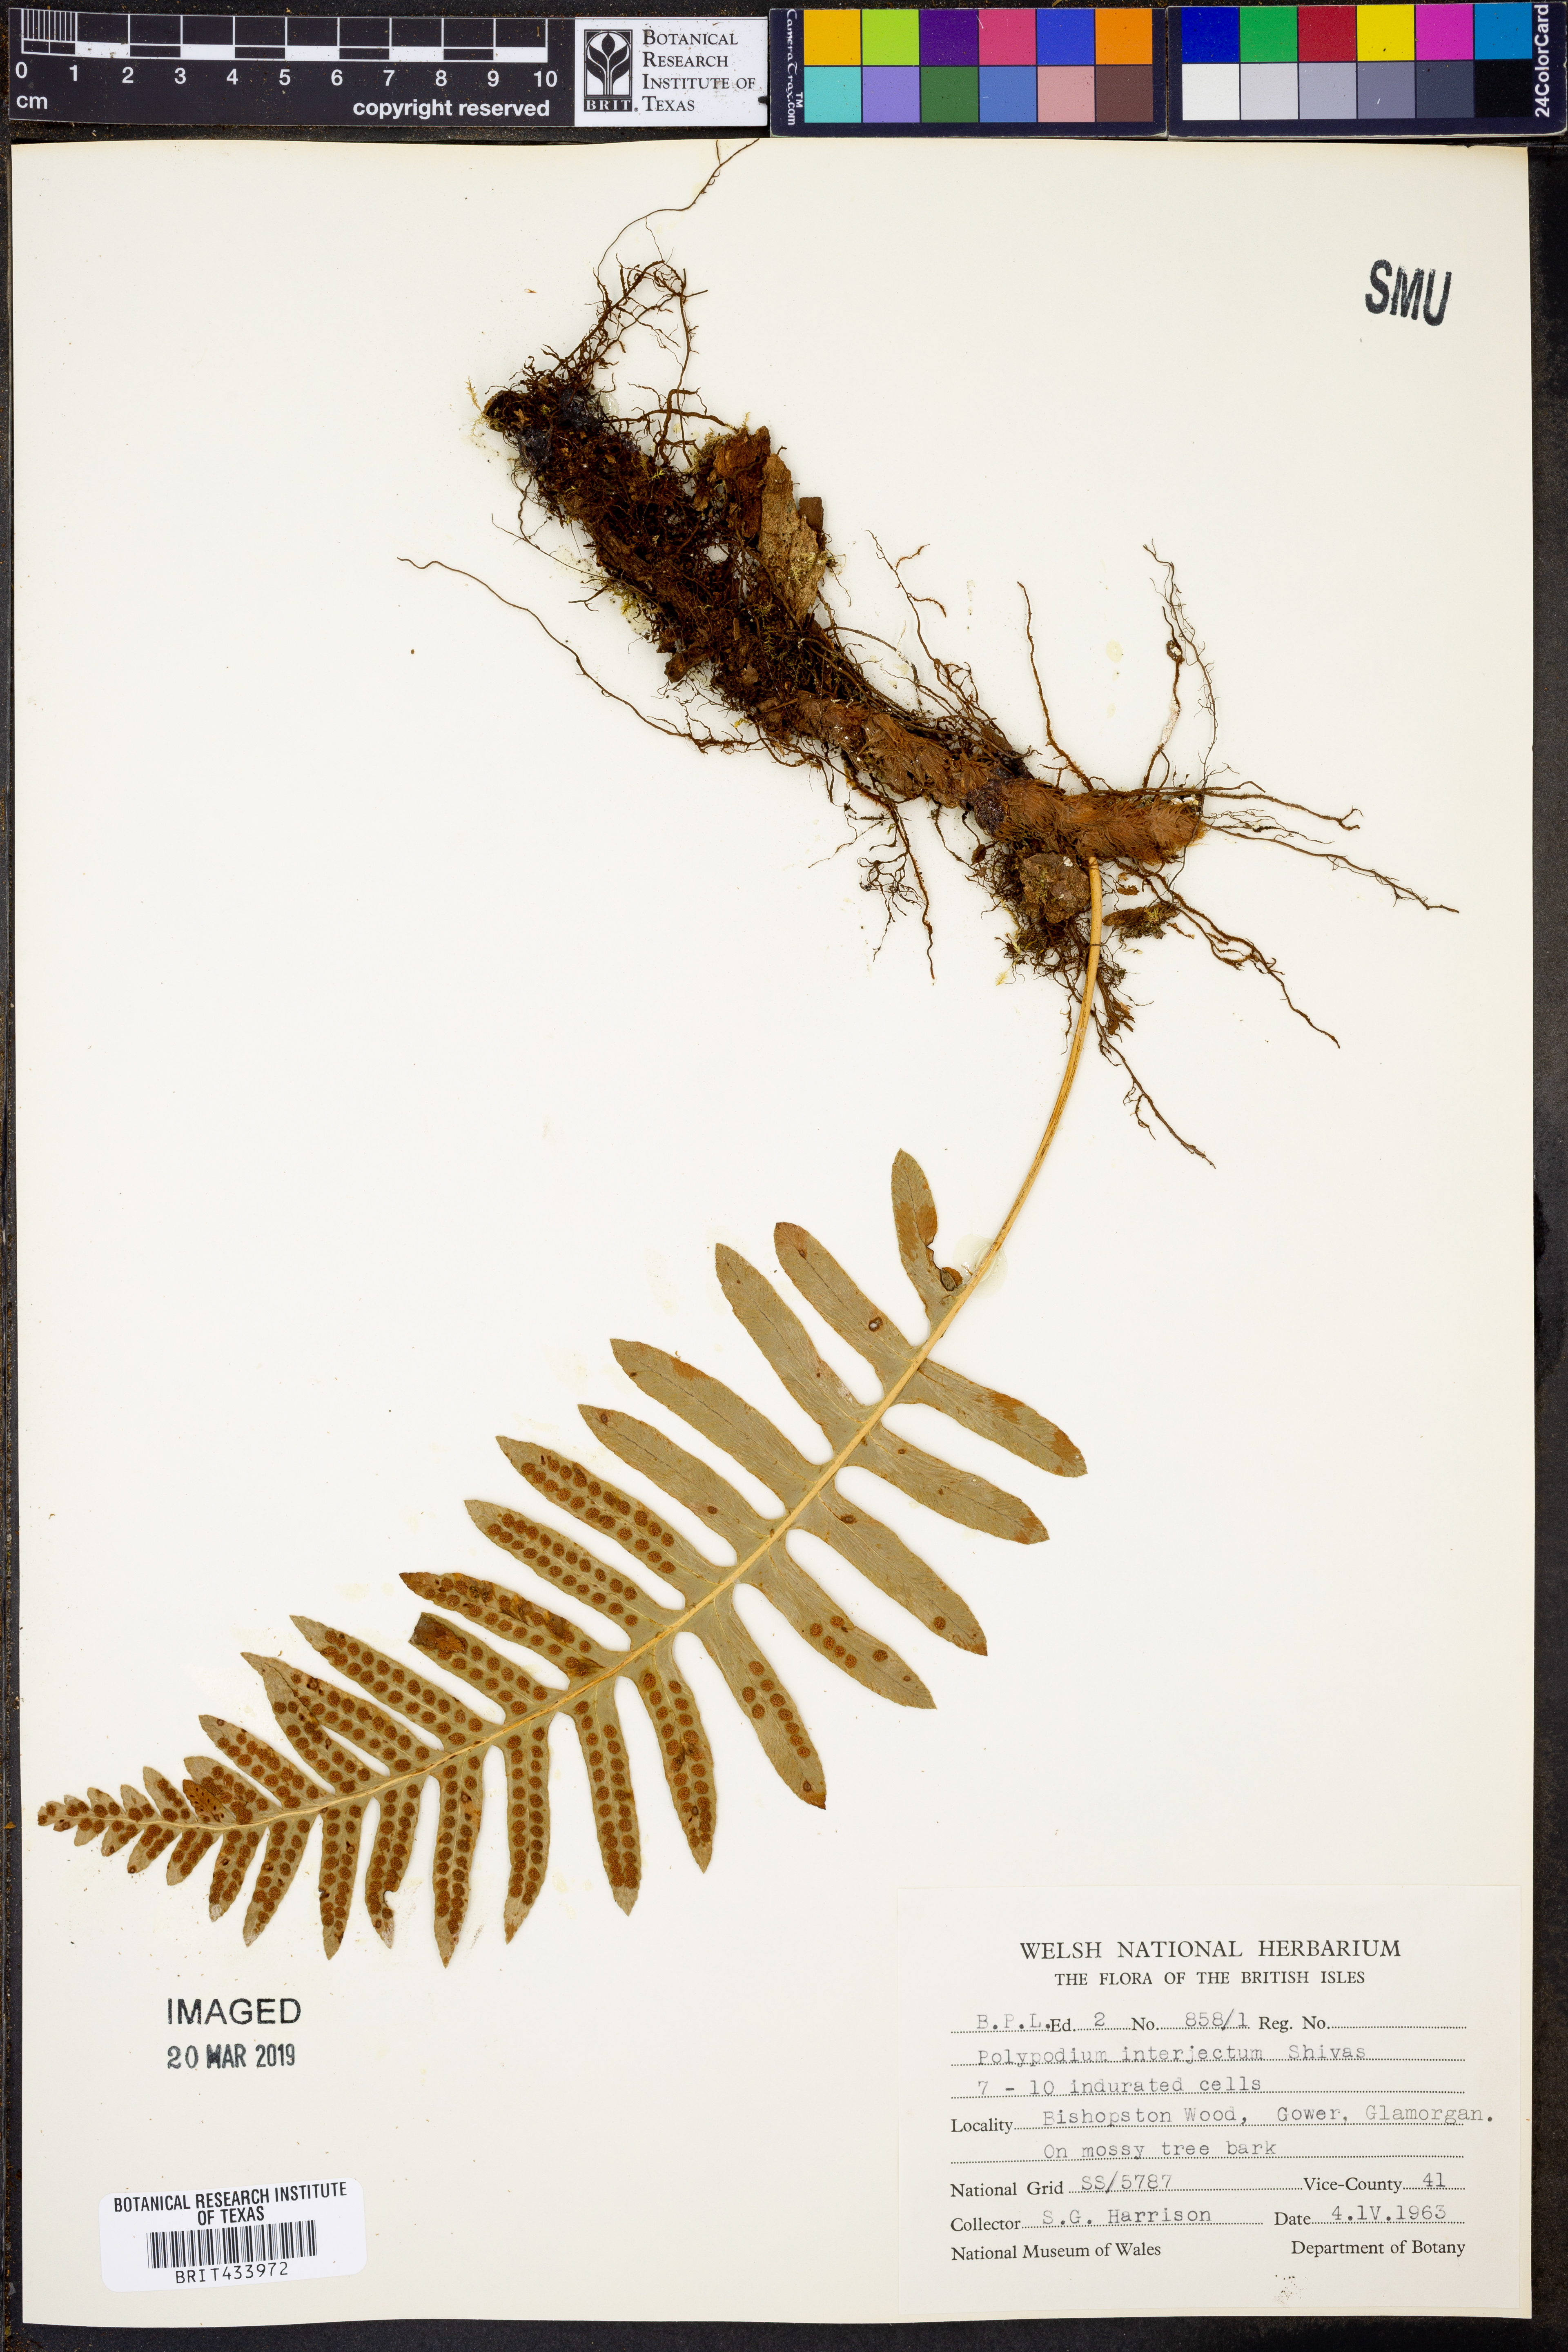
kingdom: Plantae
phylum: Tracheophyta
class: Polypodiopsida
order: Polypodiales
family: Polypodiaceae
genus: Polypodium
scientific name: Polypodium interjectum
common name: Intermediate polypody
